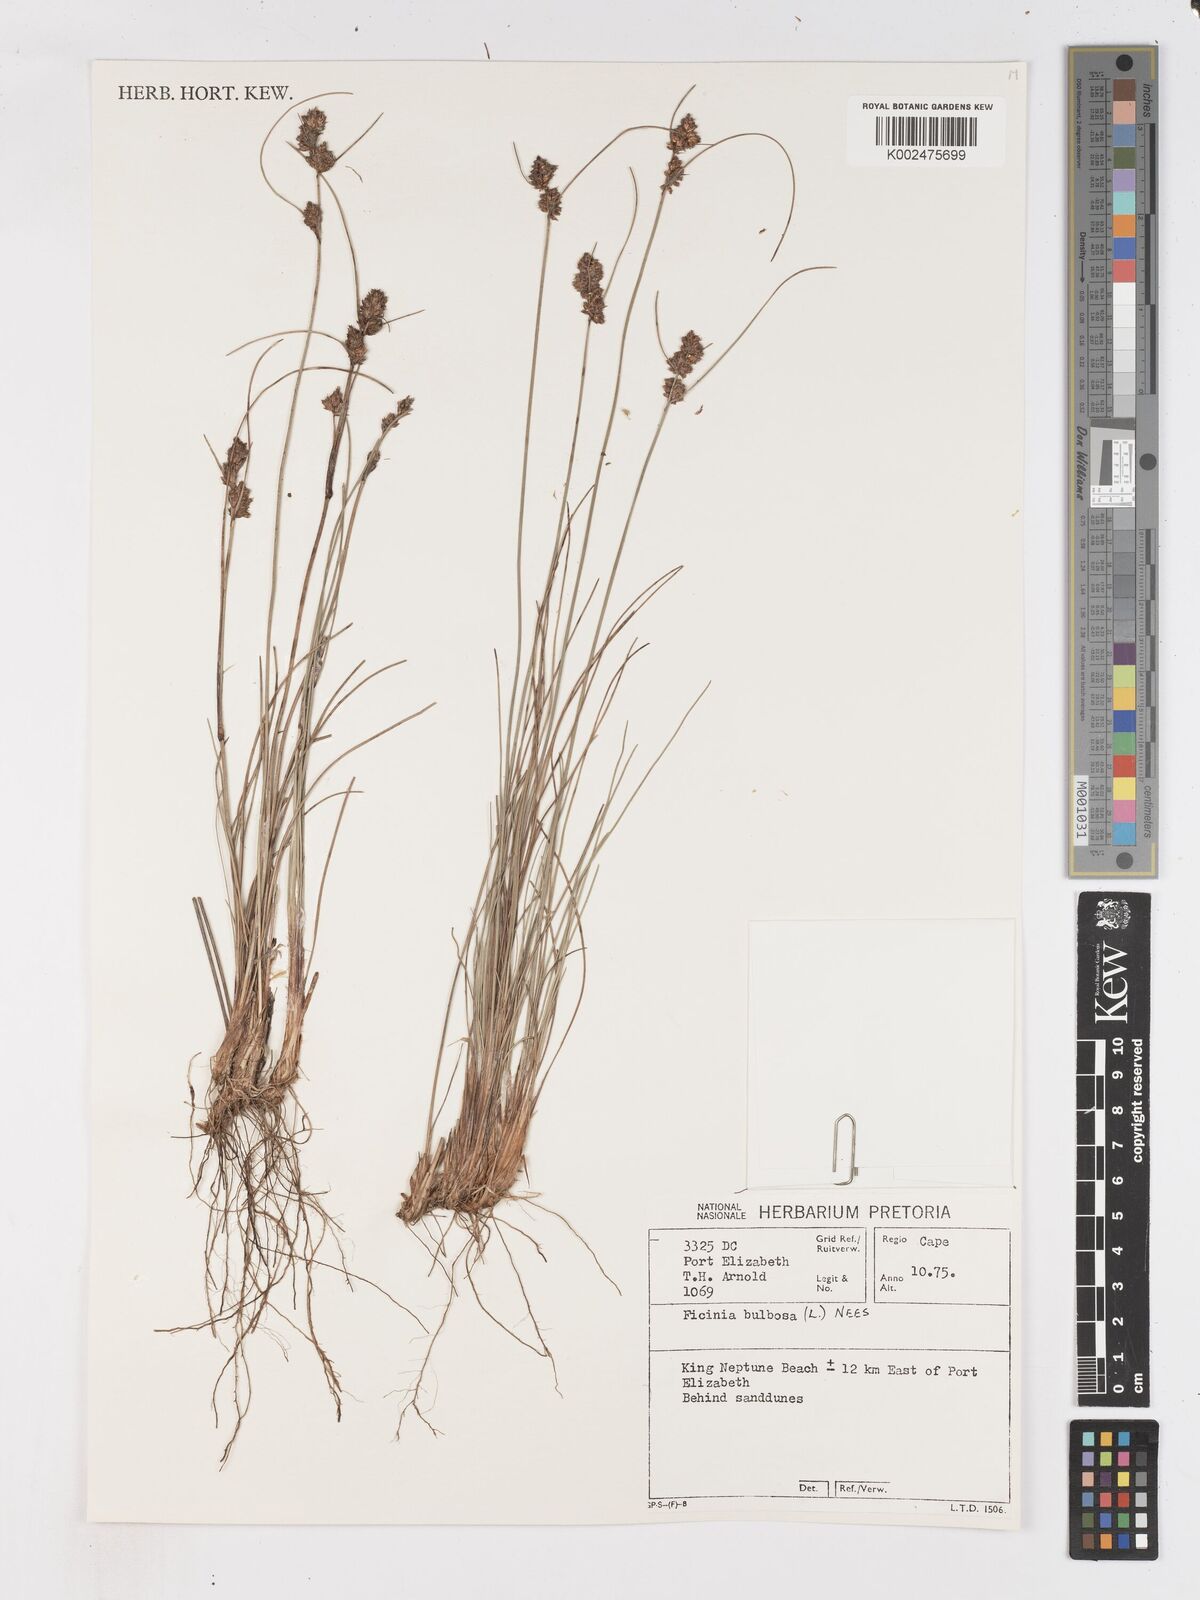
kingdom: Plantae
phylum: Tracheophyta
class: Liliopsida
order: Poales
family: Cyperaceae
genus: Ficinia
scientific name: Ficinia bulbosa
